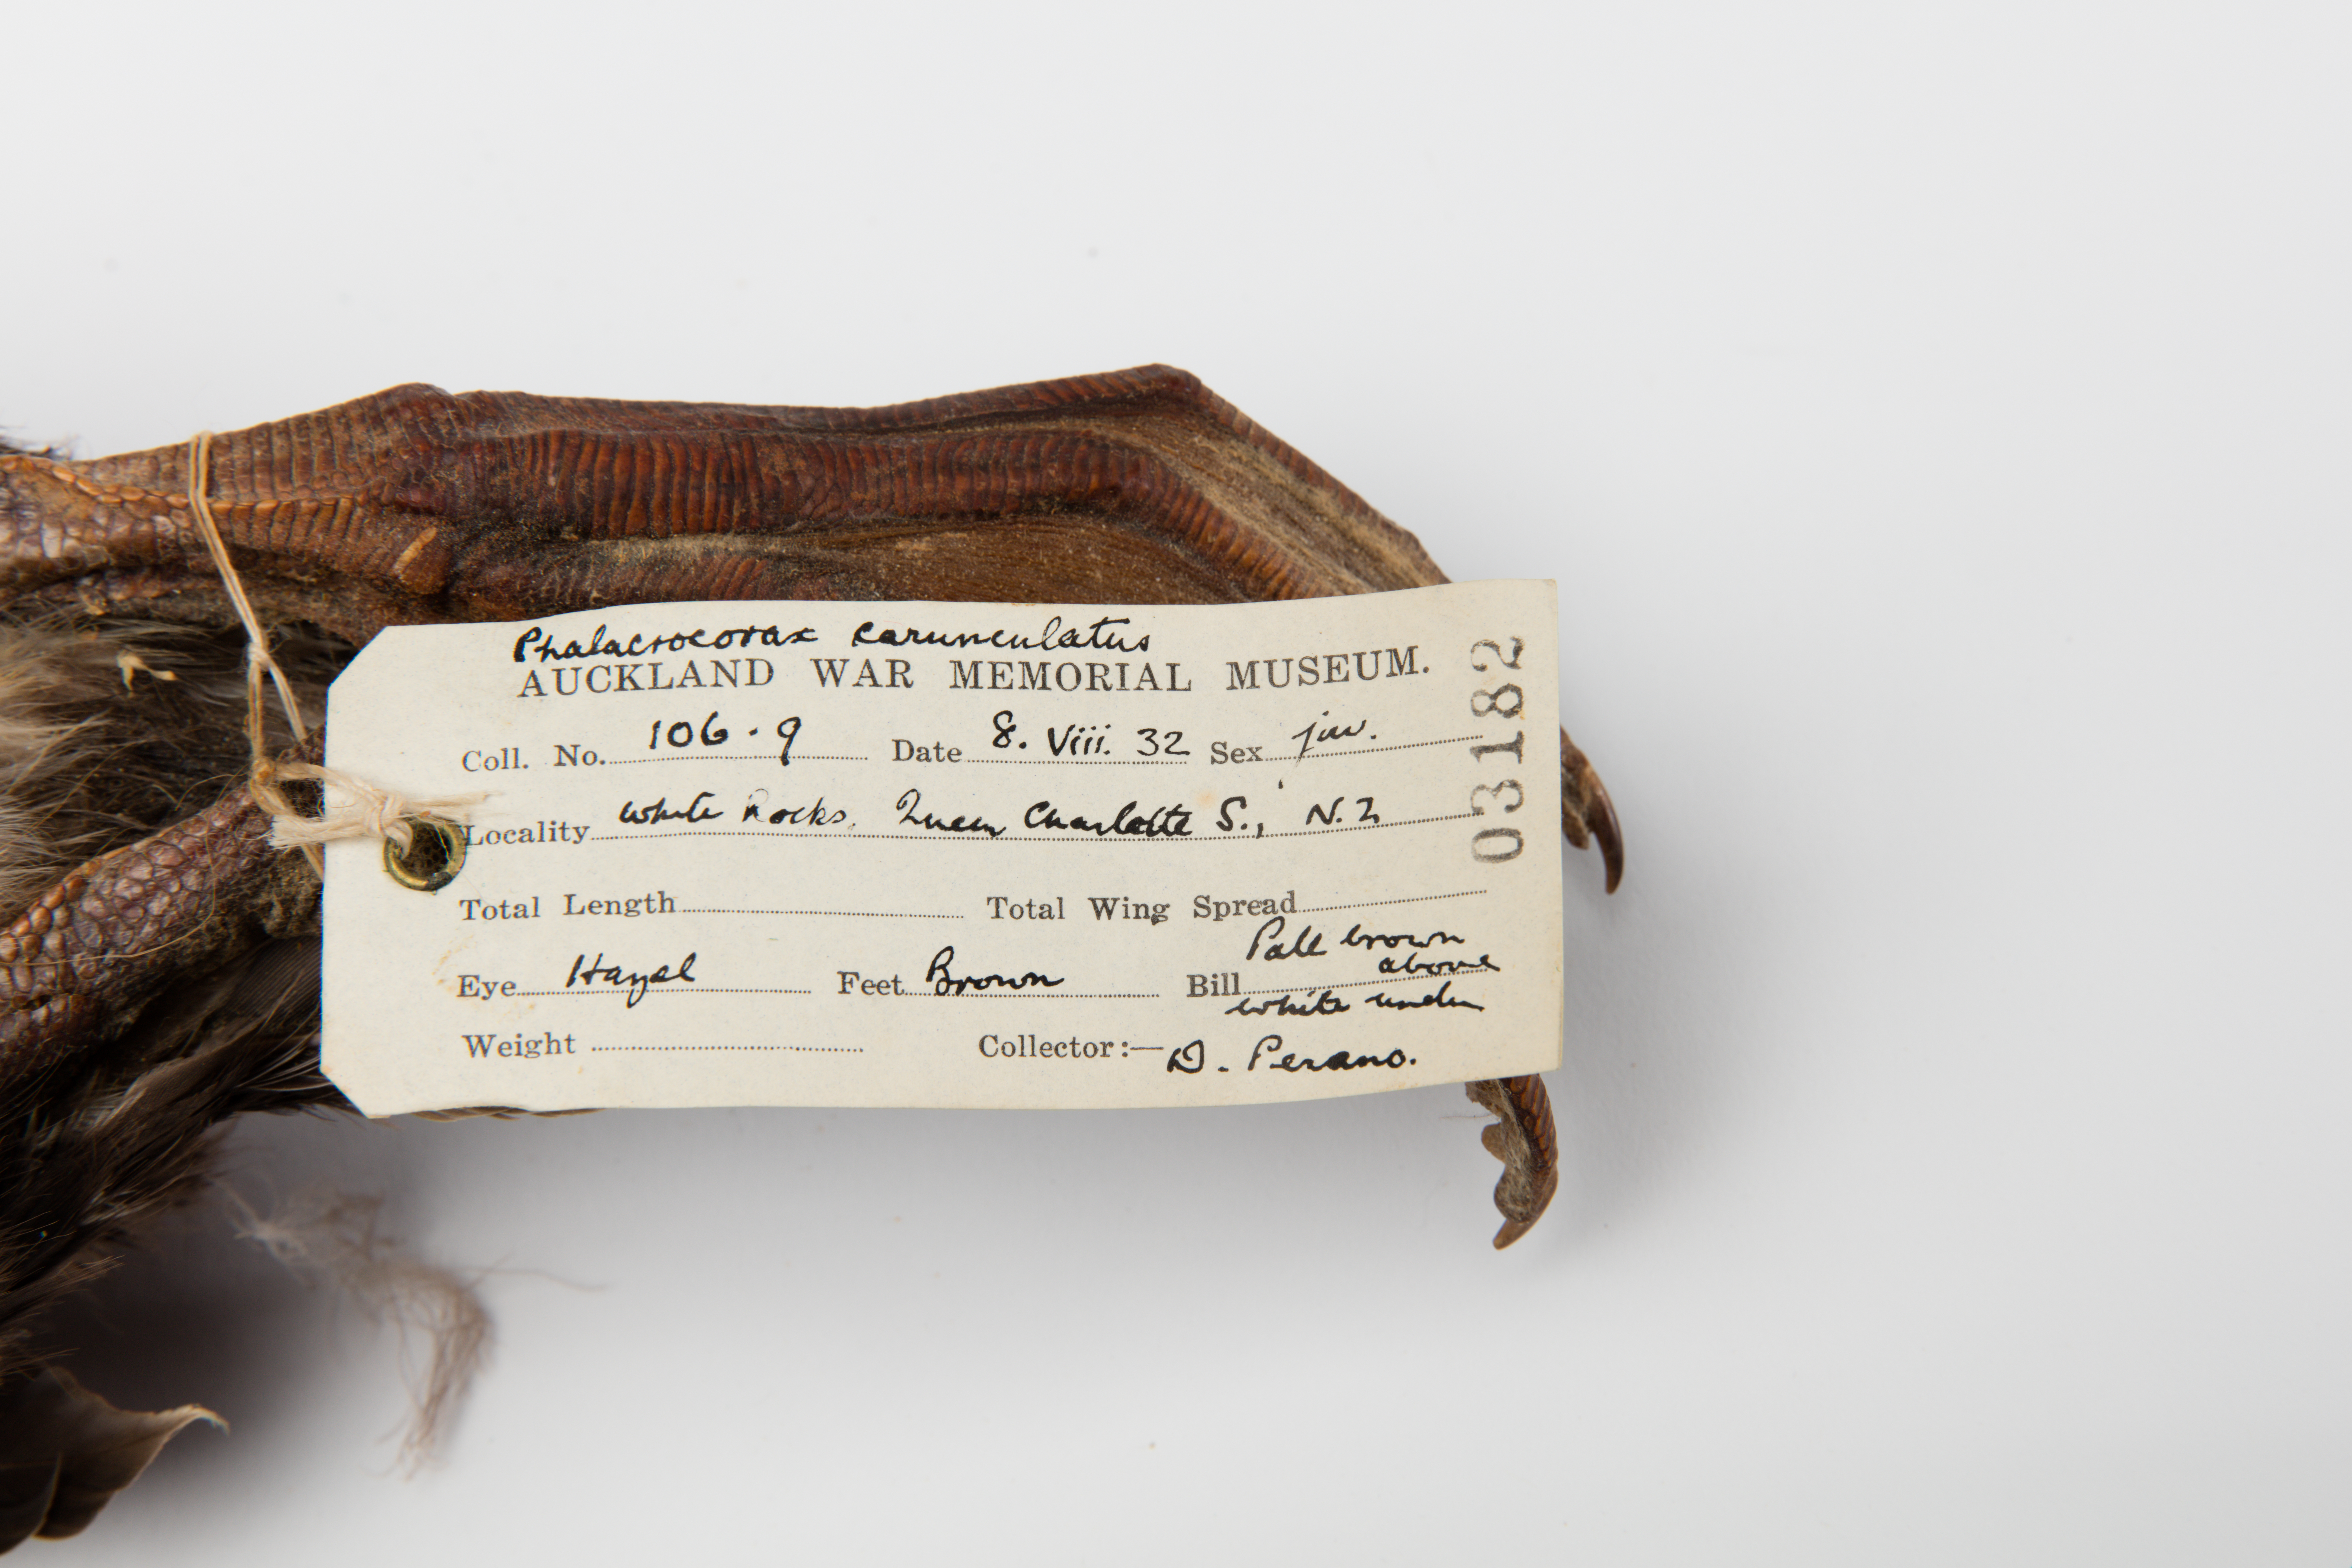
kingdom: Animalia
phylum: Chordata
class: Aves
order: Suliformes
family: Phalacrocoracidae
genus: Leucocarbo
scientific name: Leucocarbo carunculatus
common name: Rough-faced shag
